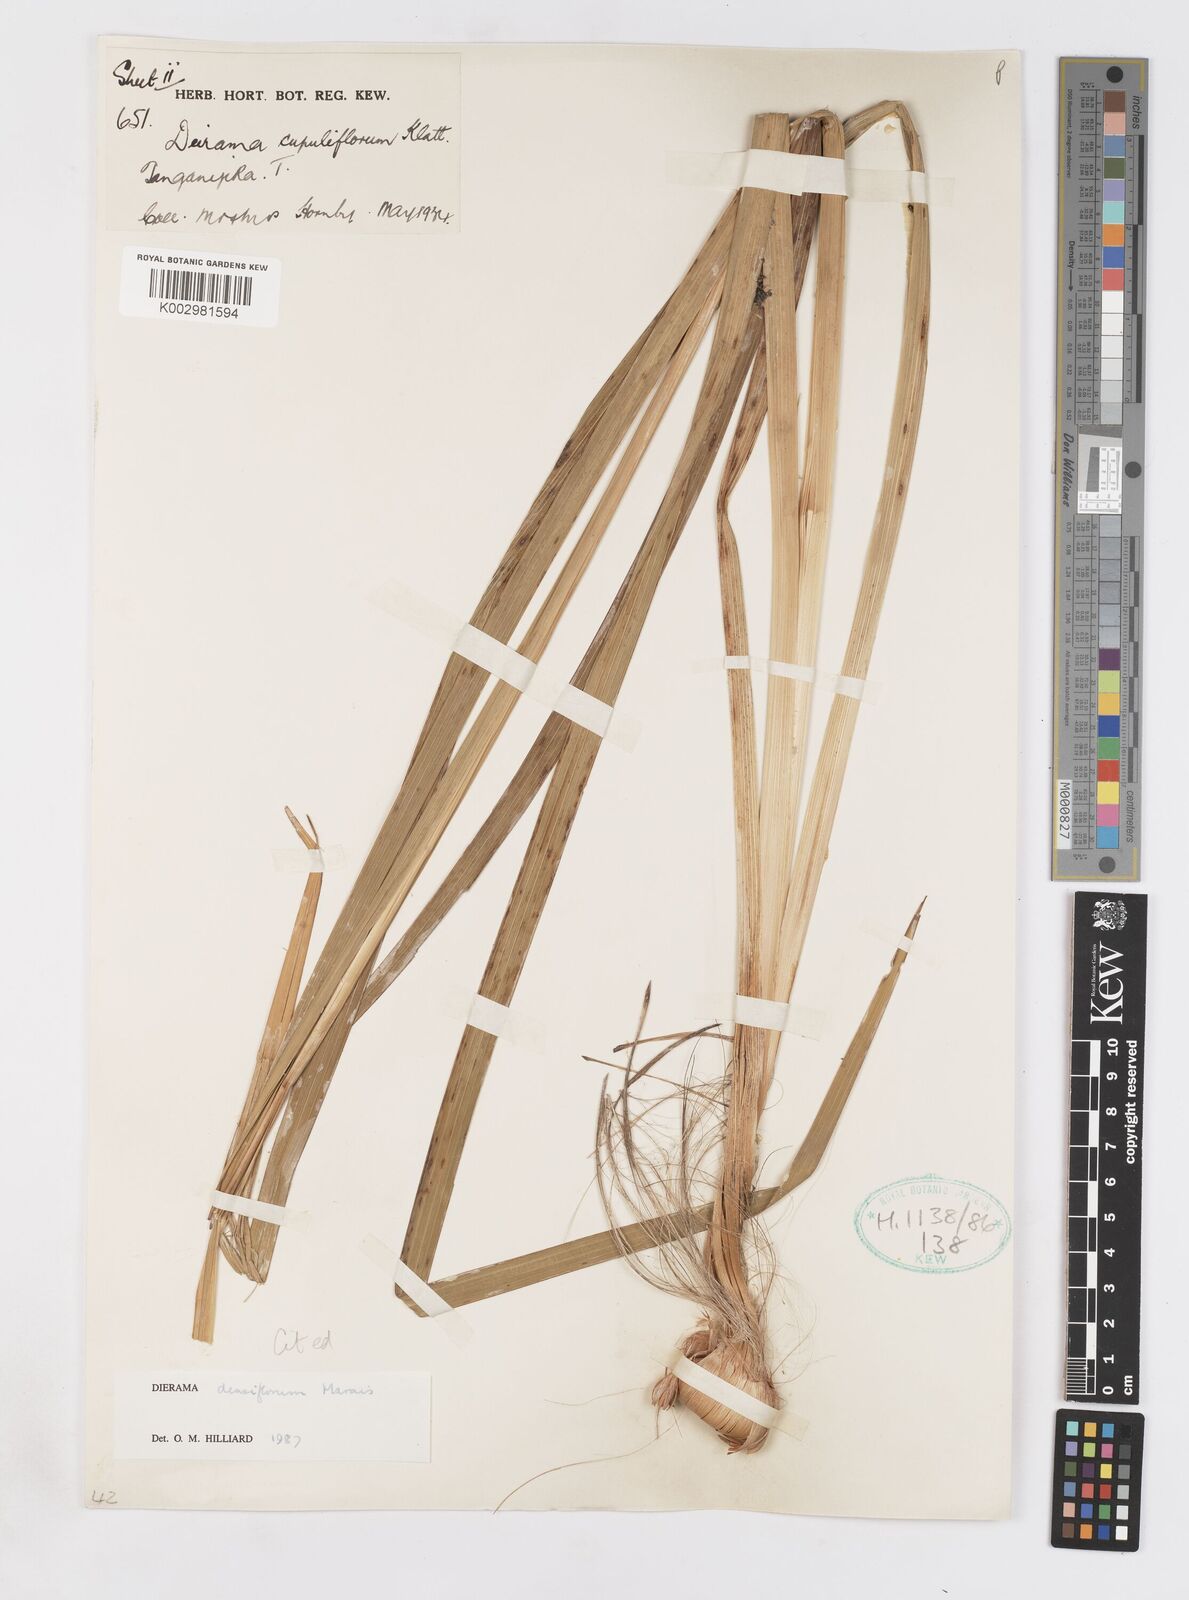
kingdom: Plantae
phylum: Tracheophyta
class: Liliopsida
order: Asparagales
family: Iridaceae
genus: Dierama
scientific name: Dierama densiflorum
